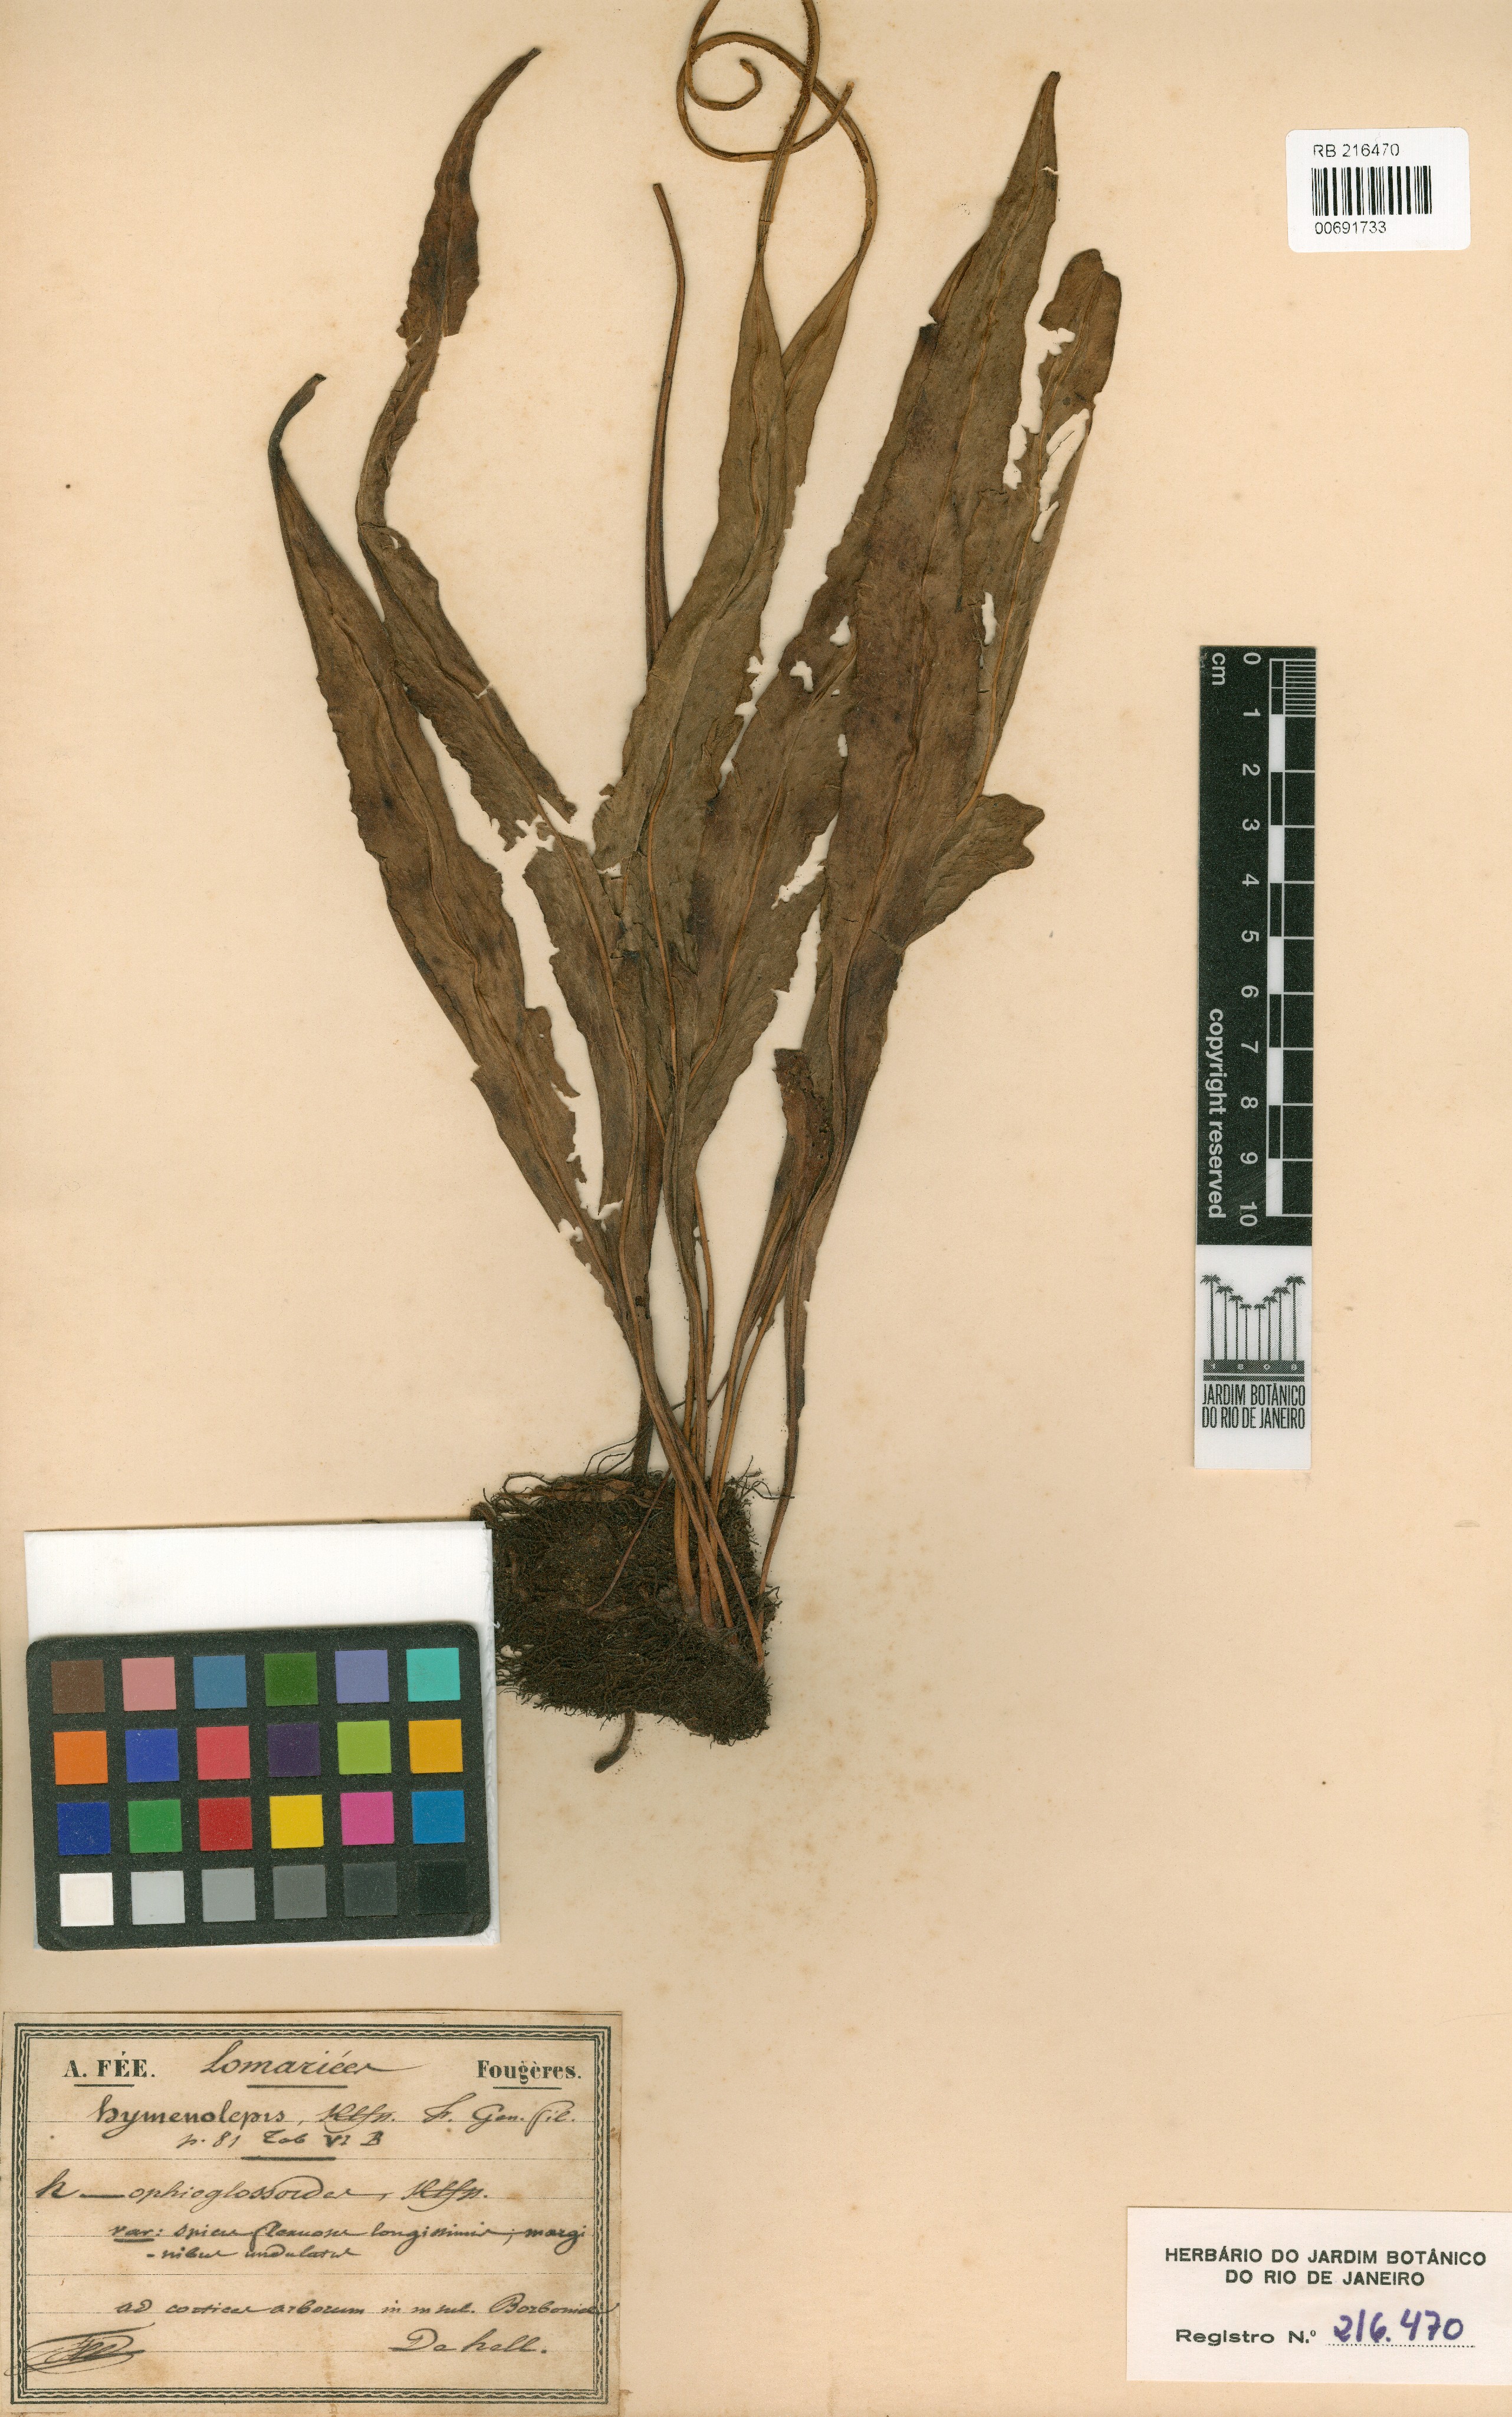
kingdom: Plantae
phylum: Tracheophyta
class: Polypodiopsida
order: Polypodiales
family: Polypodiaceae
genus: Lepisorus
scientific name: Lepisorus mucronatus
